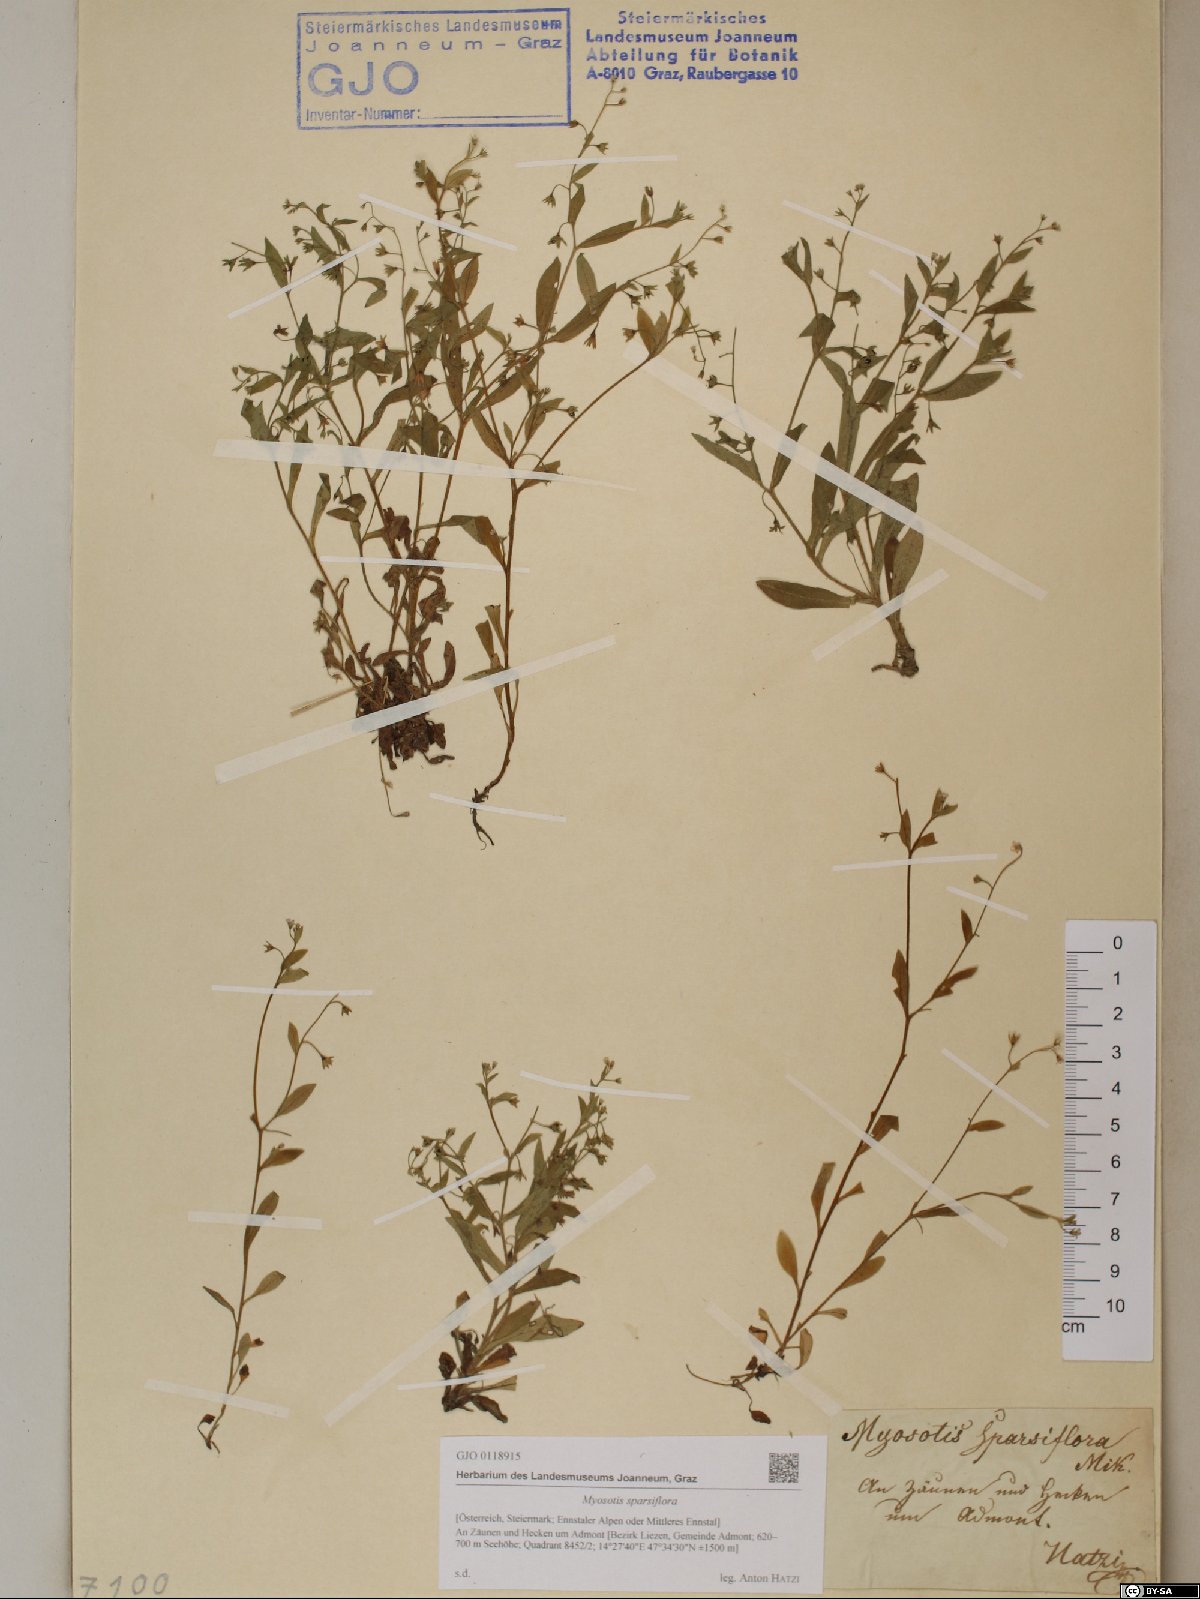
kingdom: Plantae
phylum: Tracheophyta
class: Magnoliopsida
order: Boraginales
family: Boraginaceae
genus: Myosotis
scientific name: Myosotis sparsiflora
